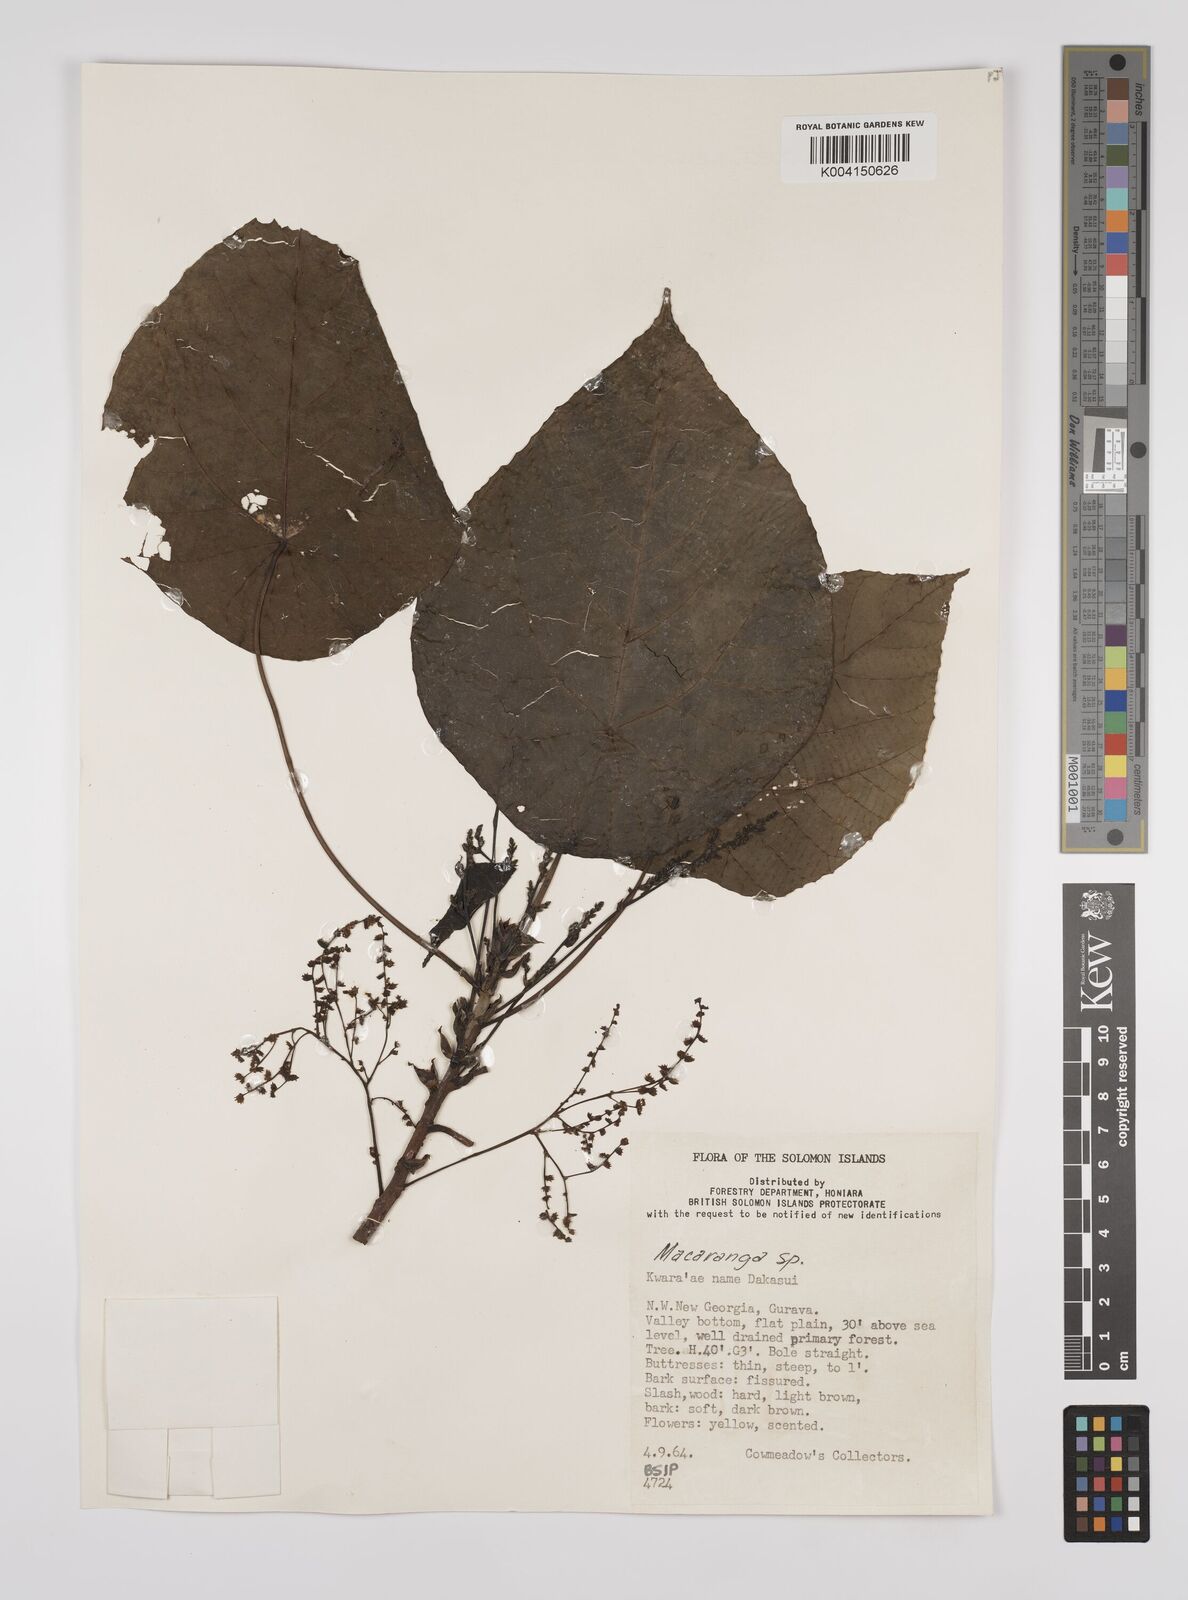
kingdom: Plantae
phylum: Tracheophyta
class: Magnoliopsida
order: Malpighiales
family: Euphorbiaceae
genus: Macaranga
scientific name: Macaranga tanarius
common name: Parasol leaf tree
